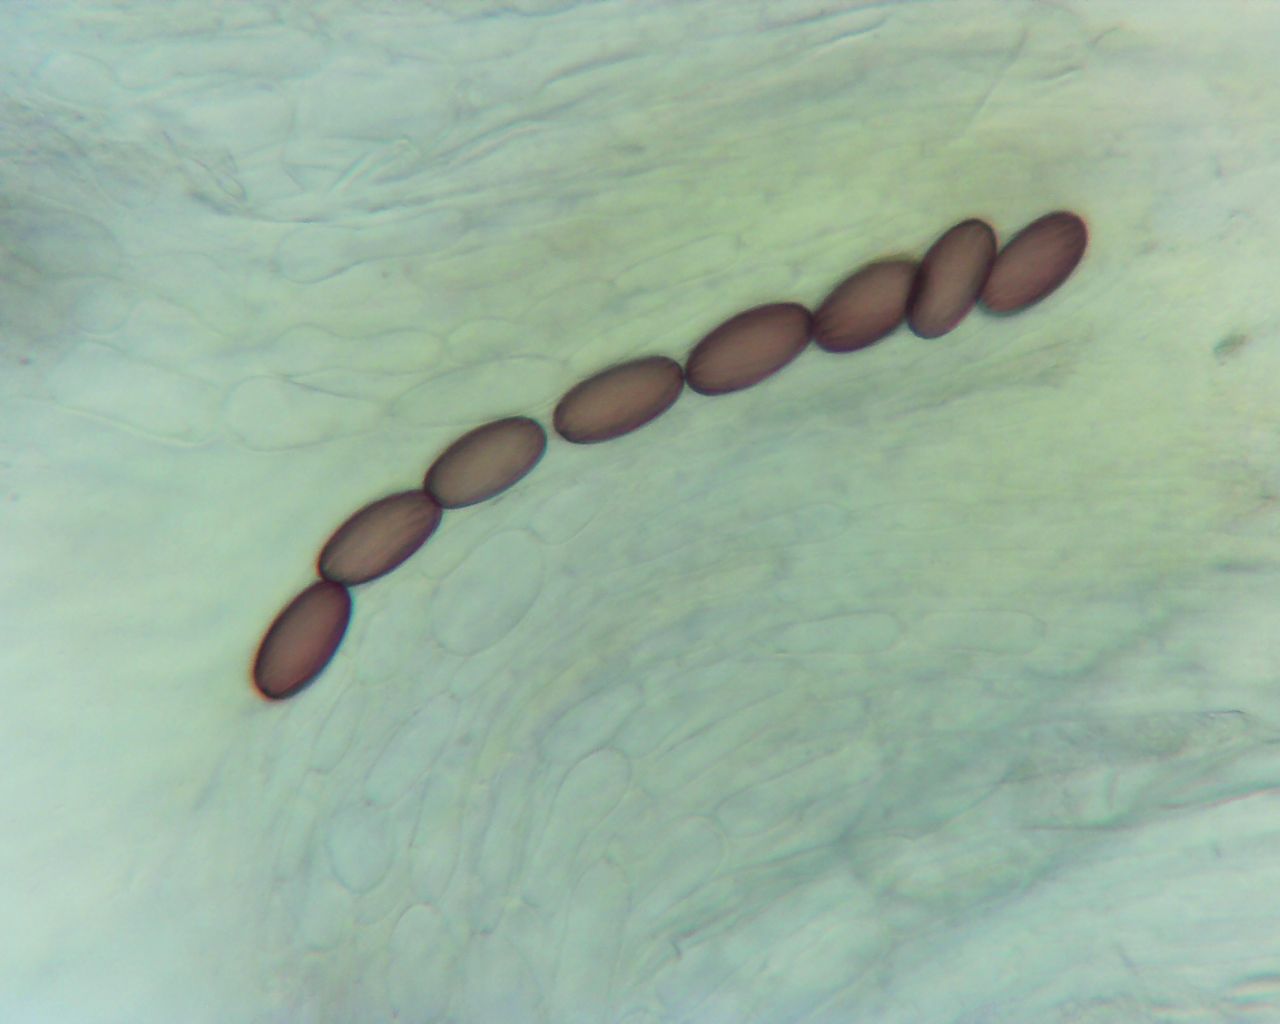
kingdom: Fungi
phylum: Ascomycota
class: Pezizomycetes
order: Pezizales
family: Ascobolaceae
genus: Ascobolus
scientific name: Ascobolus furfuraceus
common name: almindelig prikbæger
